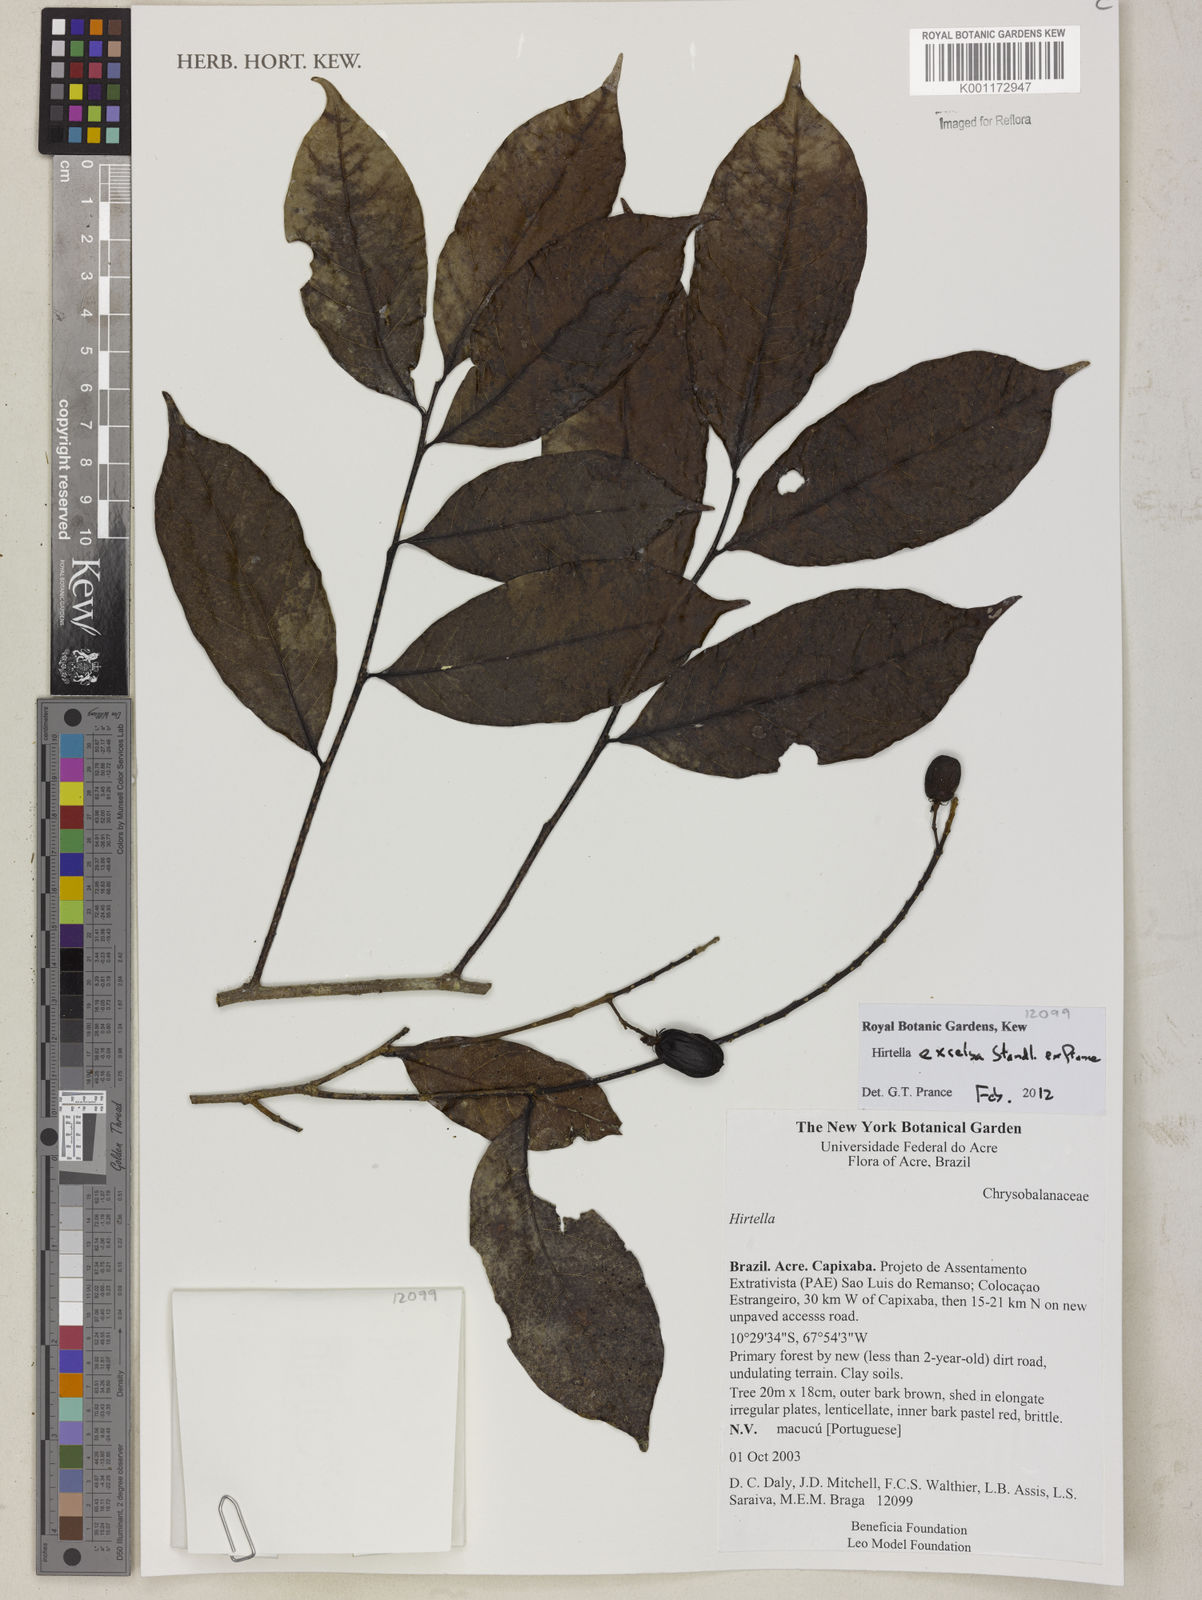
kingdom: Plantae
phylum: Tracheophyta
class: Magnoliopsida
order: Malpighiales
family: Chrysobalanaceae
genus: Hirtella
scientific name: Hirtella excelsa
